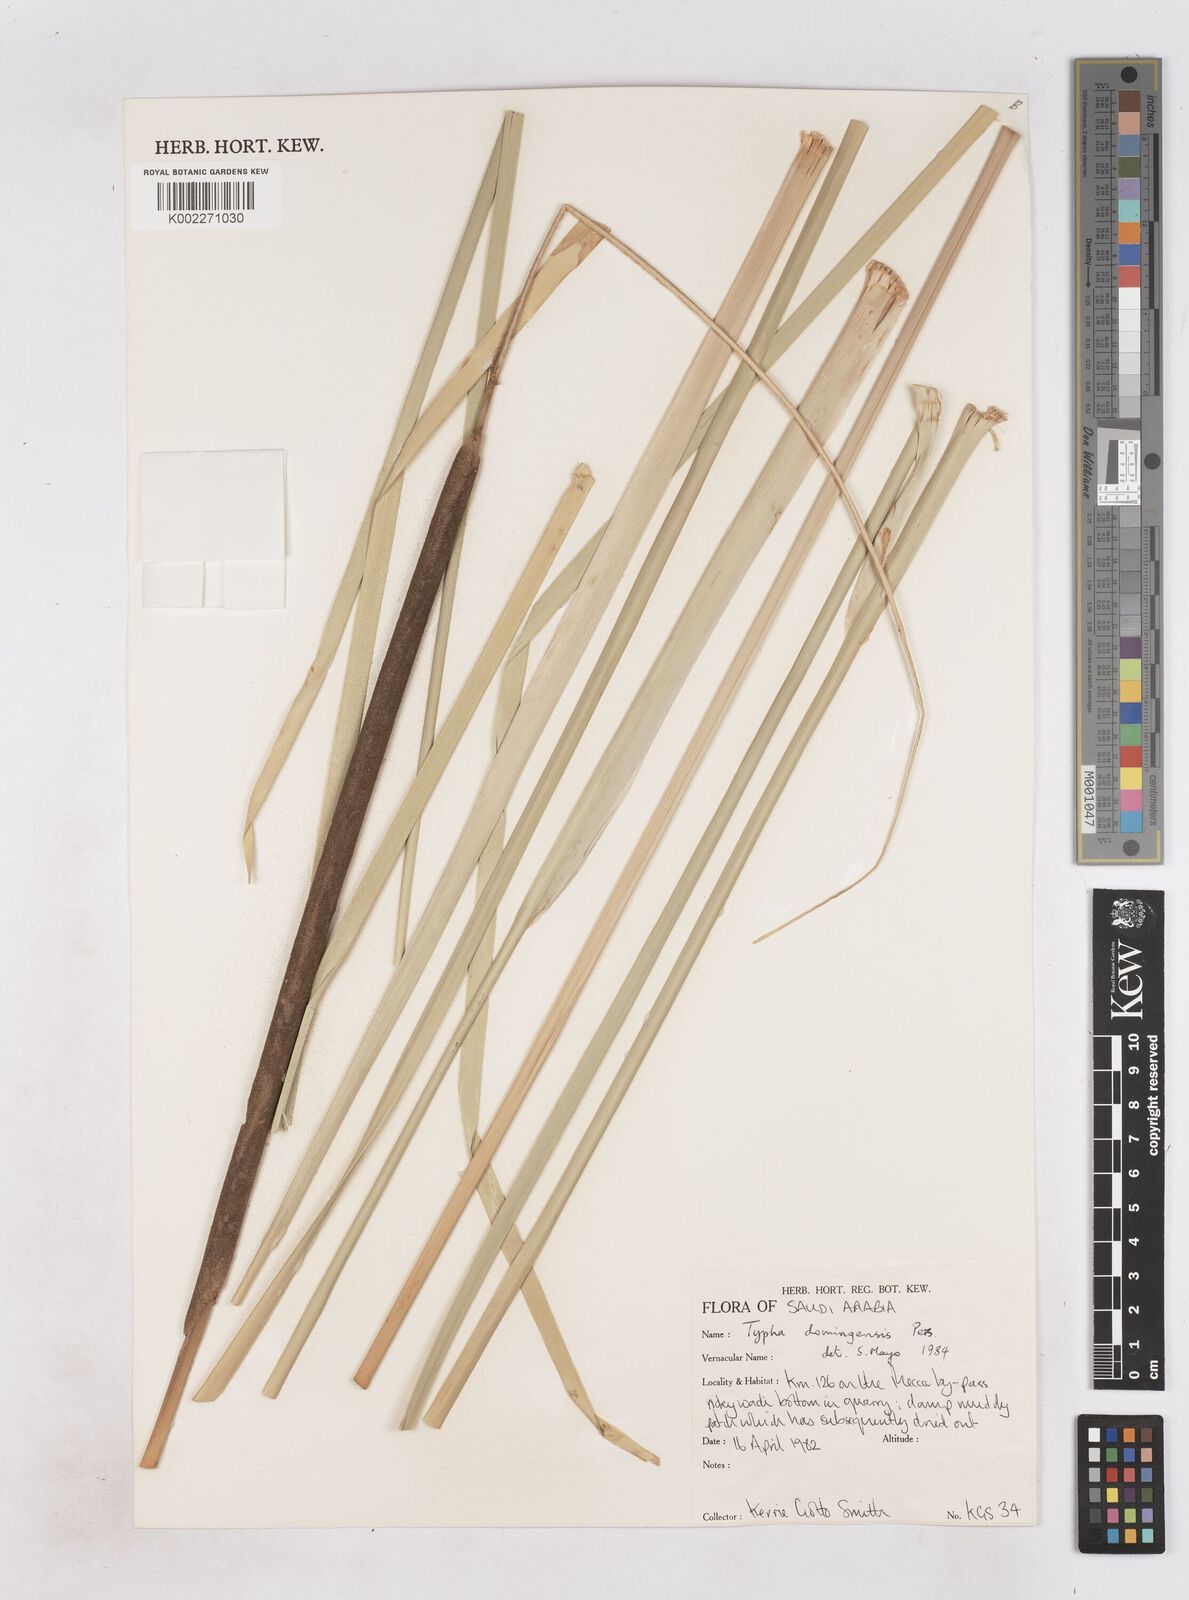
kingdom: Plantae
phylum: Tracheophyta
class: Liliopsida
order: Poales
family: Typhaceae
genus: Typha
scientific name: Typha domingensis
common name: Southern cattail
